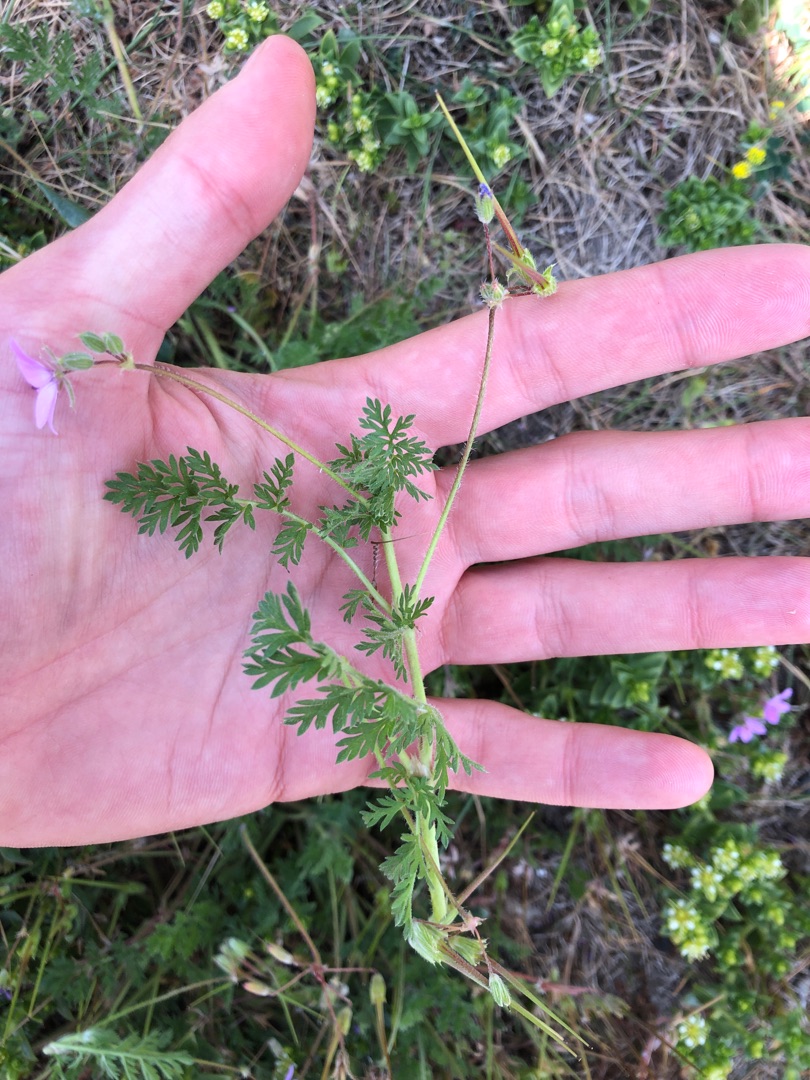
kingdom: Plantae
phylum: Tracheophyta
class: Magnoliopsida
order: Geraniales
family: Geraniaceae
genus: Erodium
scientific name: Erodium cicutarium
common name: Hejrenæb
